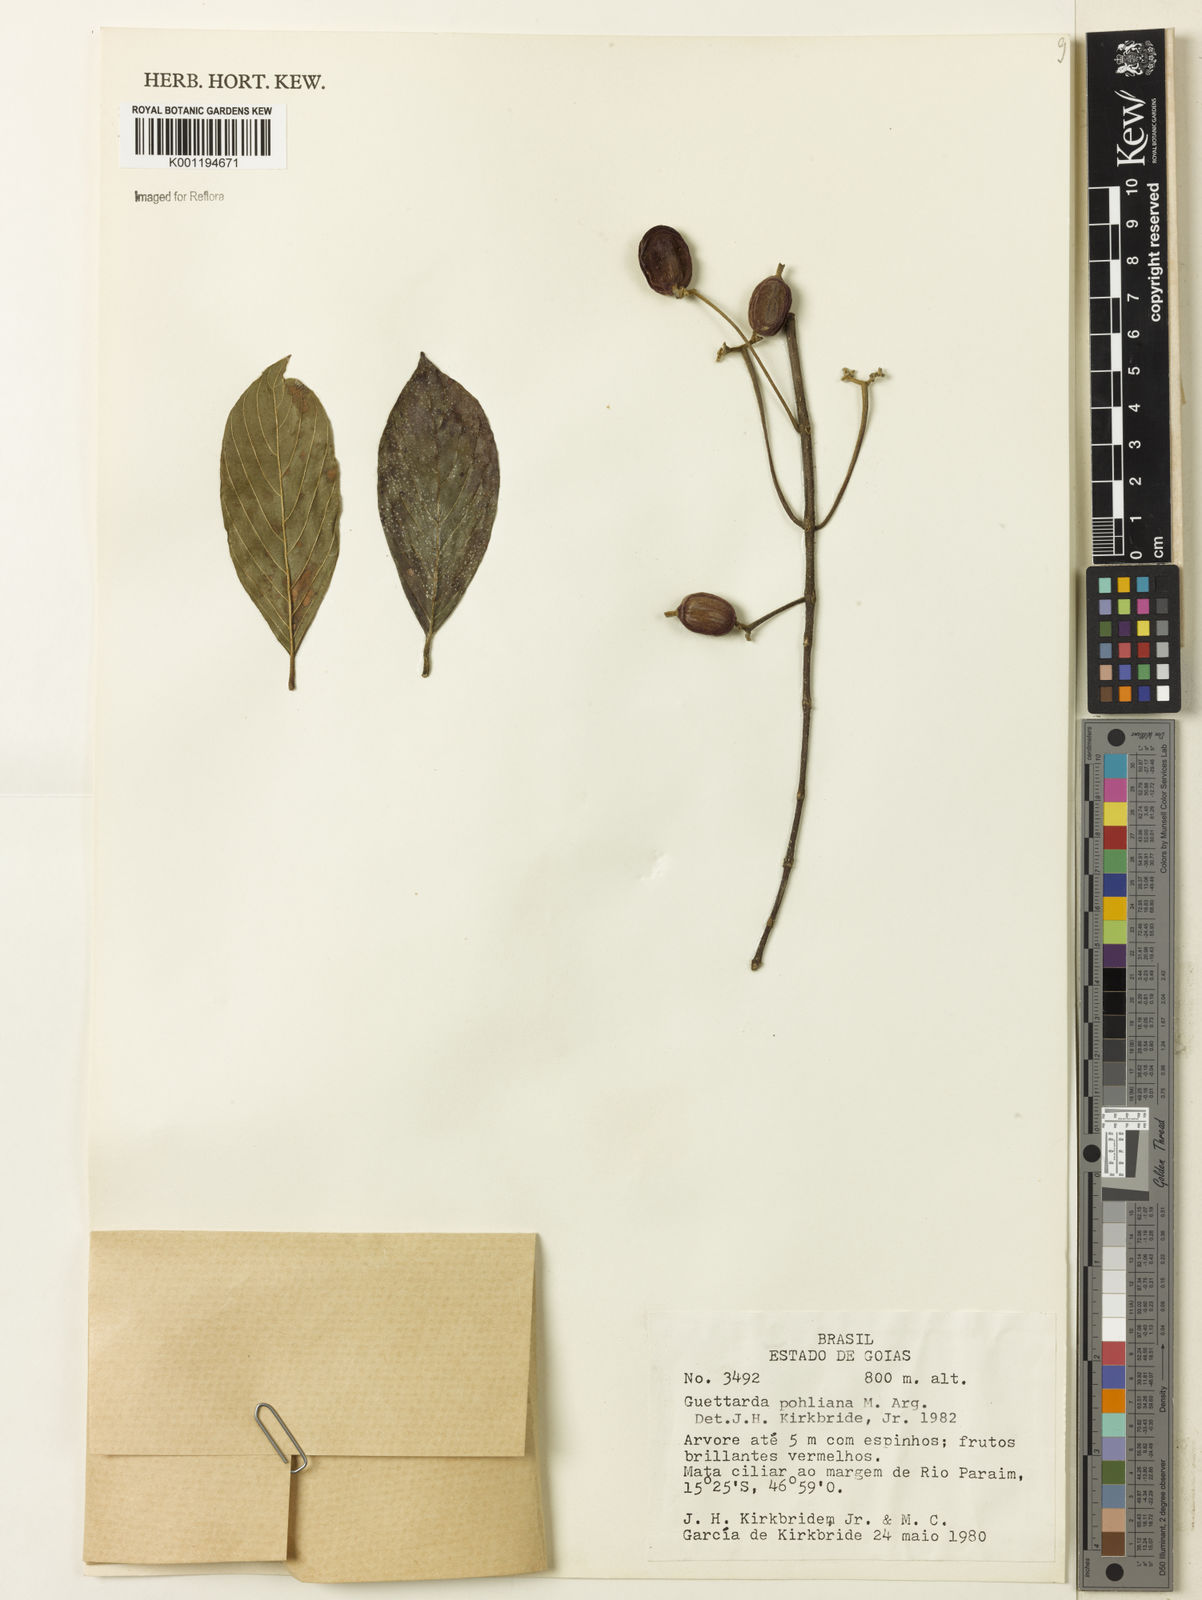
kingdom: Plantae
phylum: Tracheophyta
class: Magnoliopsida
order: Gentianales
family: Rubiaceae
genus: Guettarda
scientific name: Guettarda
